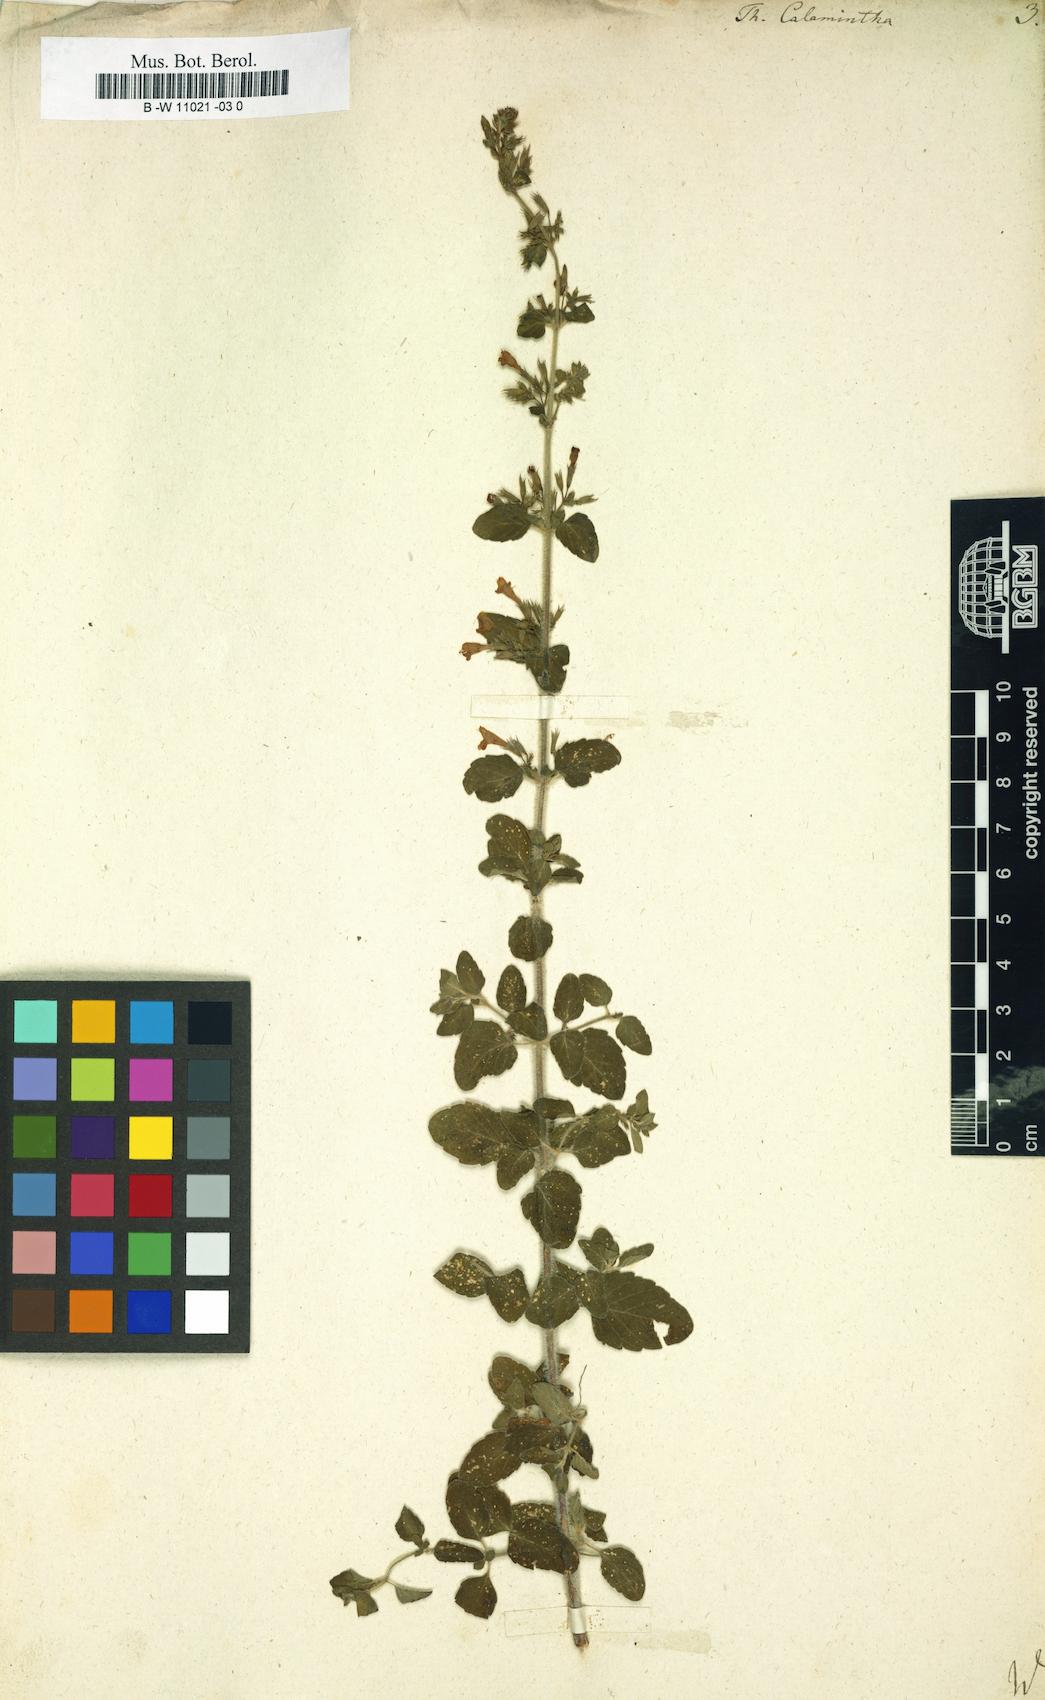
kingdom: Plantae
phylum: Tracheophyta
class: Magnoliopsida
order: Lamiales
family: Lamiaceae
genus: Clinopodium
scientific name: Clinopodium nepeta
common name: Lesser calamint
